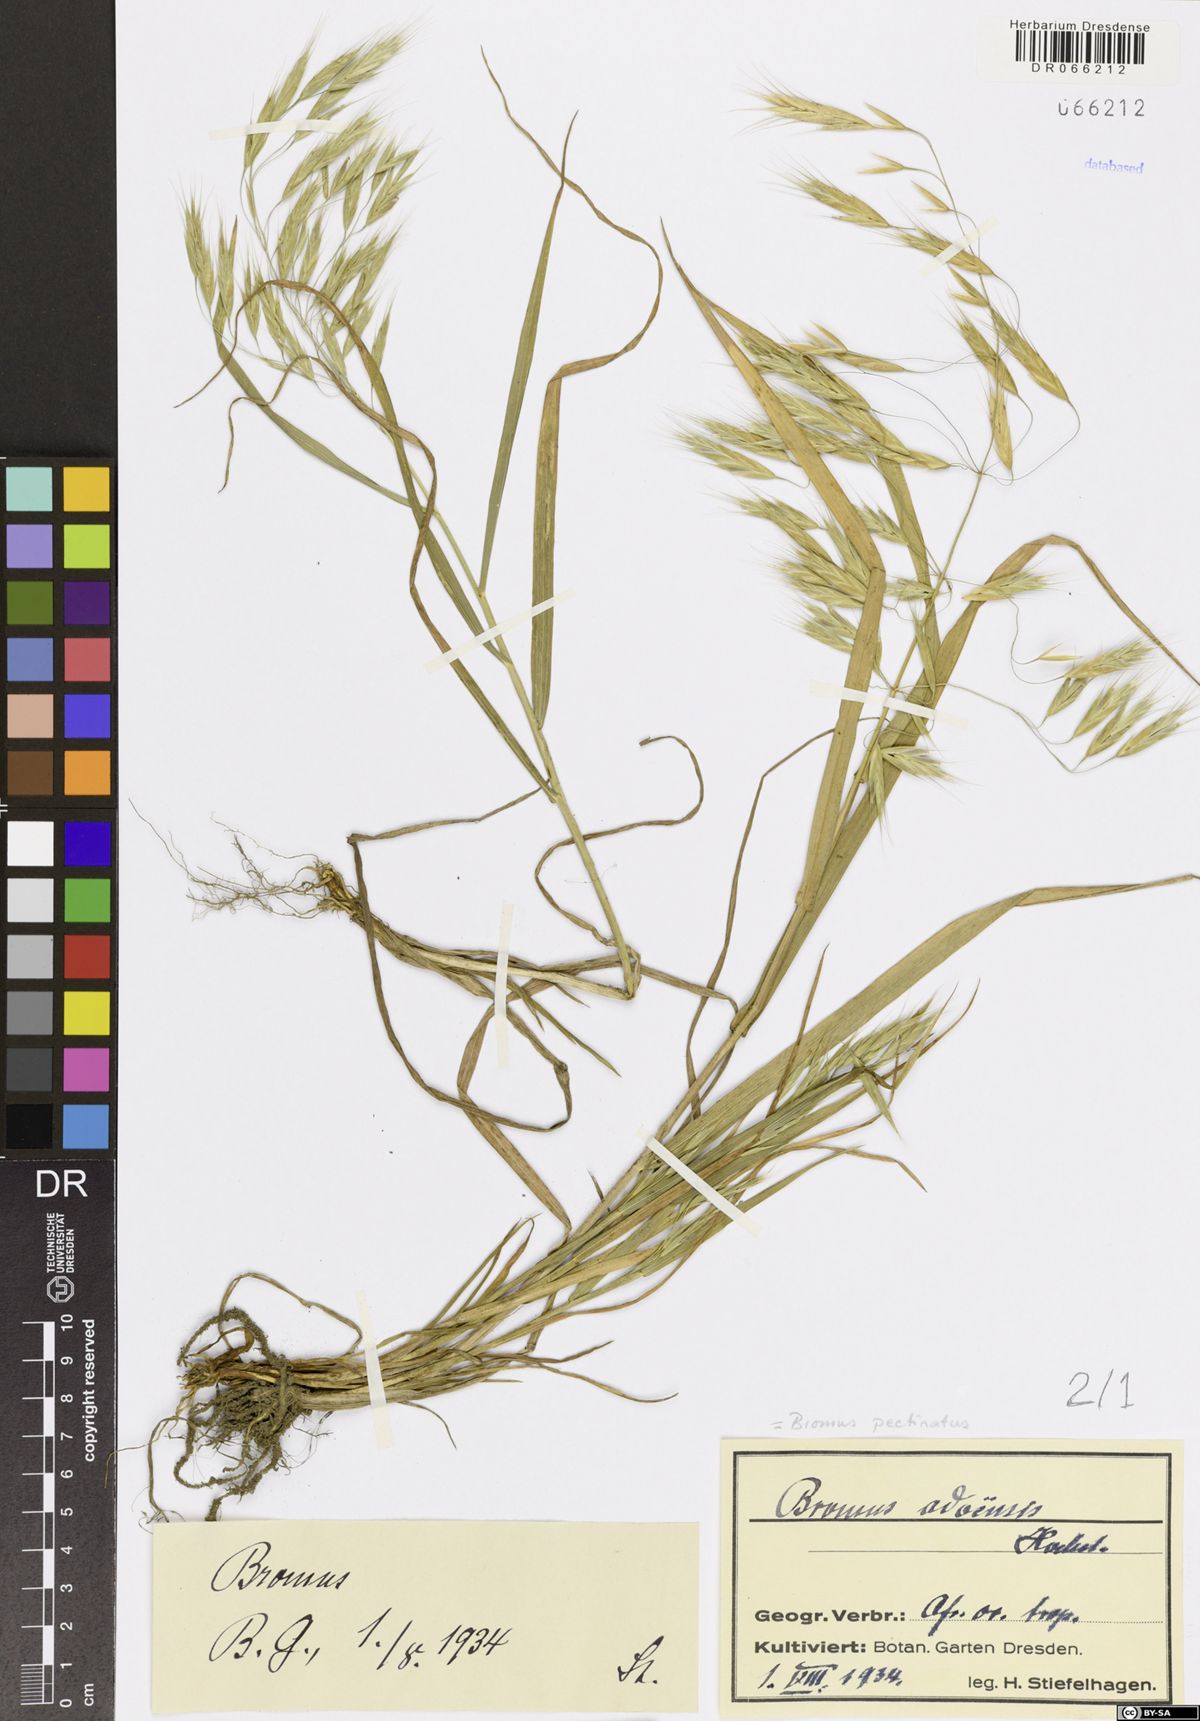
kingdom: Plantae
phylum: Tracheophyta
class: Liliopsida
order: Poales
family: Poaceae
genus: Bromus
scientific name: Bromus pectinatus
